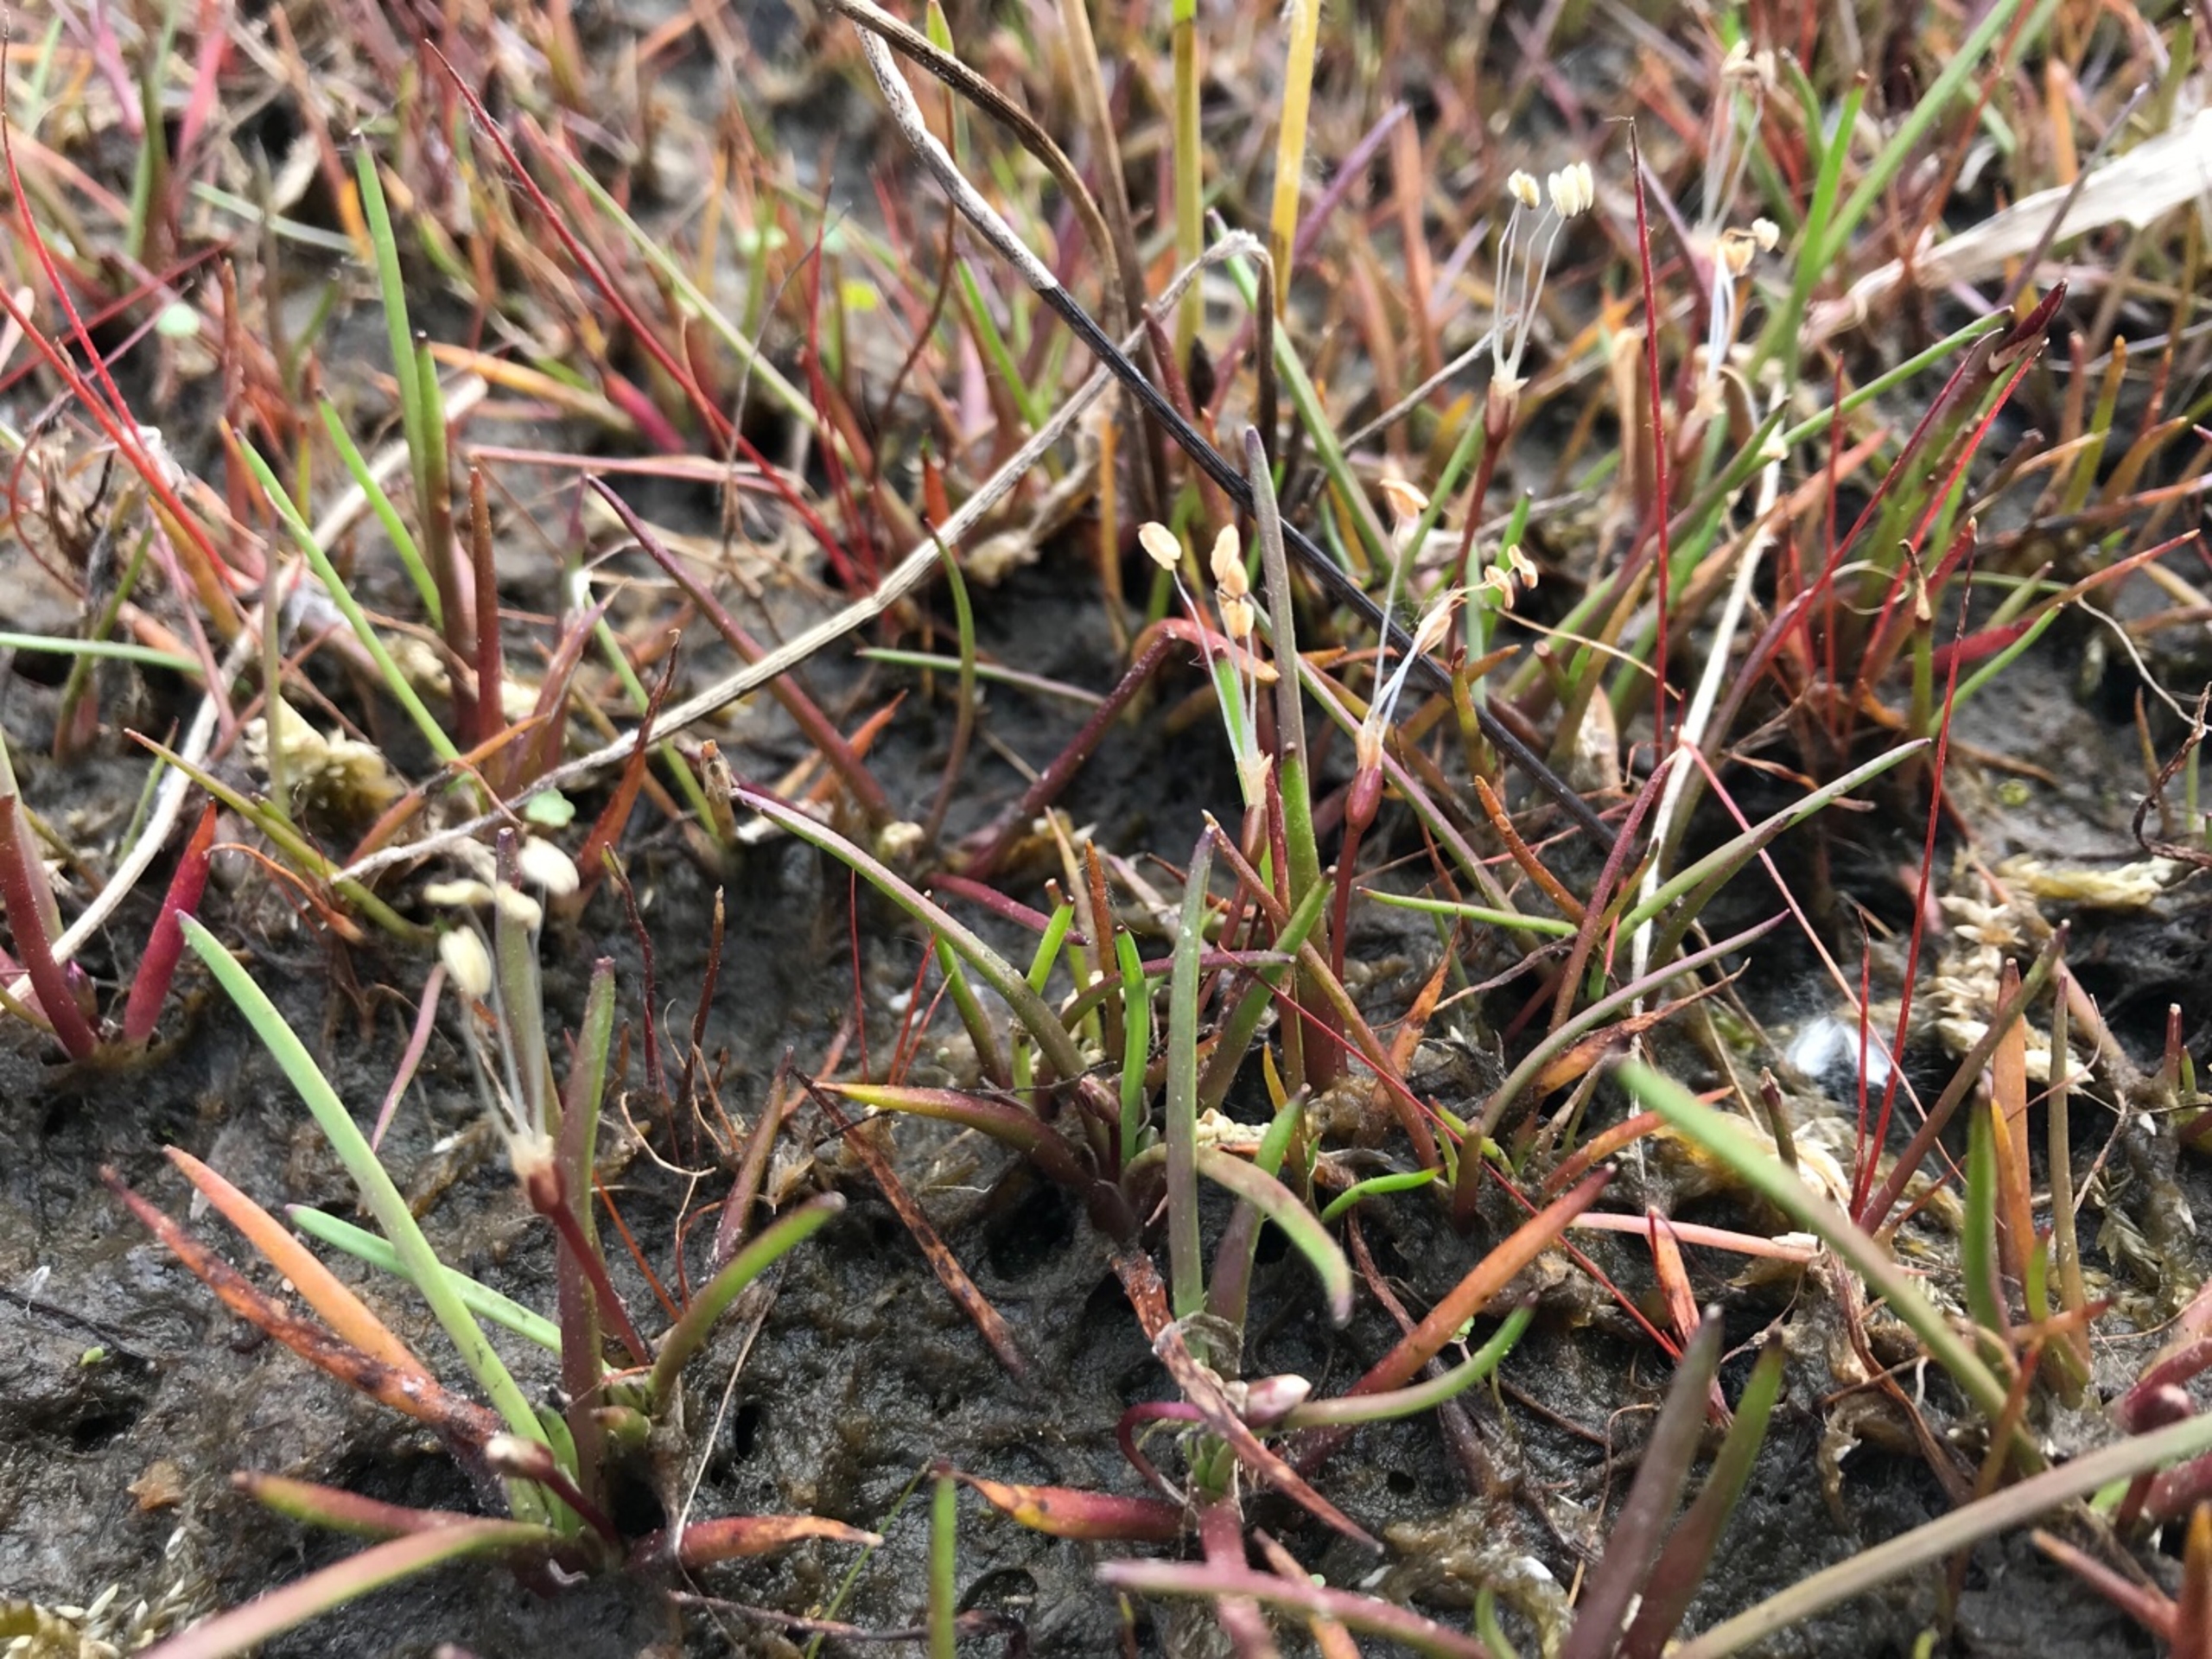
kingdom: Plantae
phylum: Tracheophyta
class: Magnoliopsida
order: Lamiales
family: Plantaginaceae
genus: Littorella
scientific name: Littorella uniflora
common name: Strandbo
